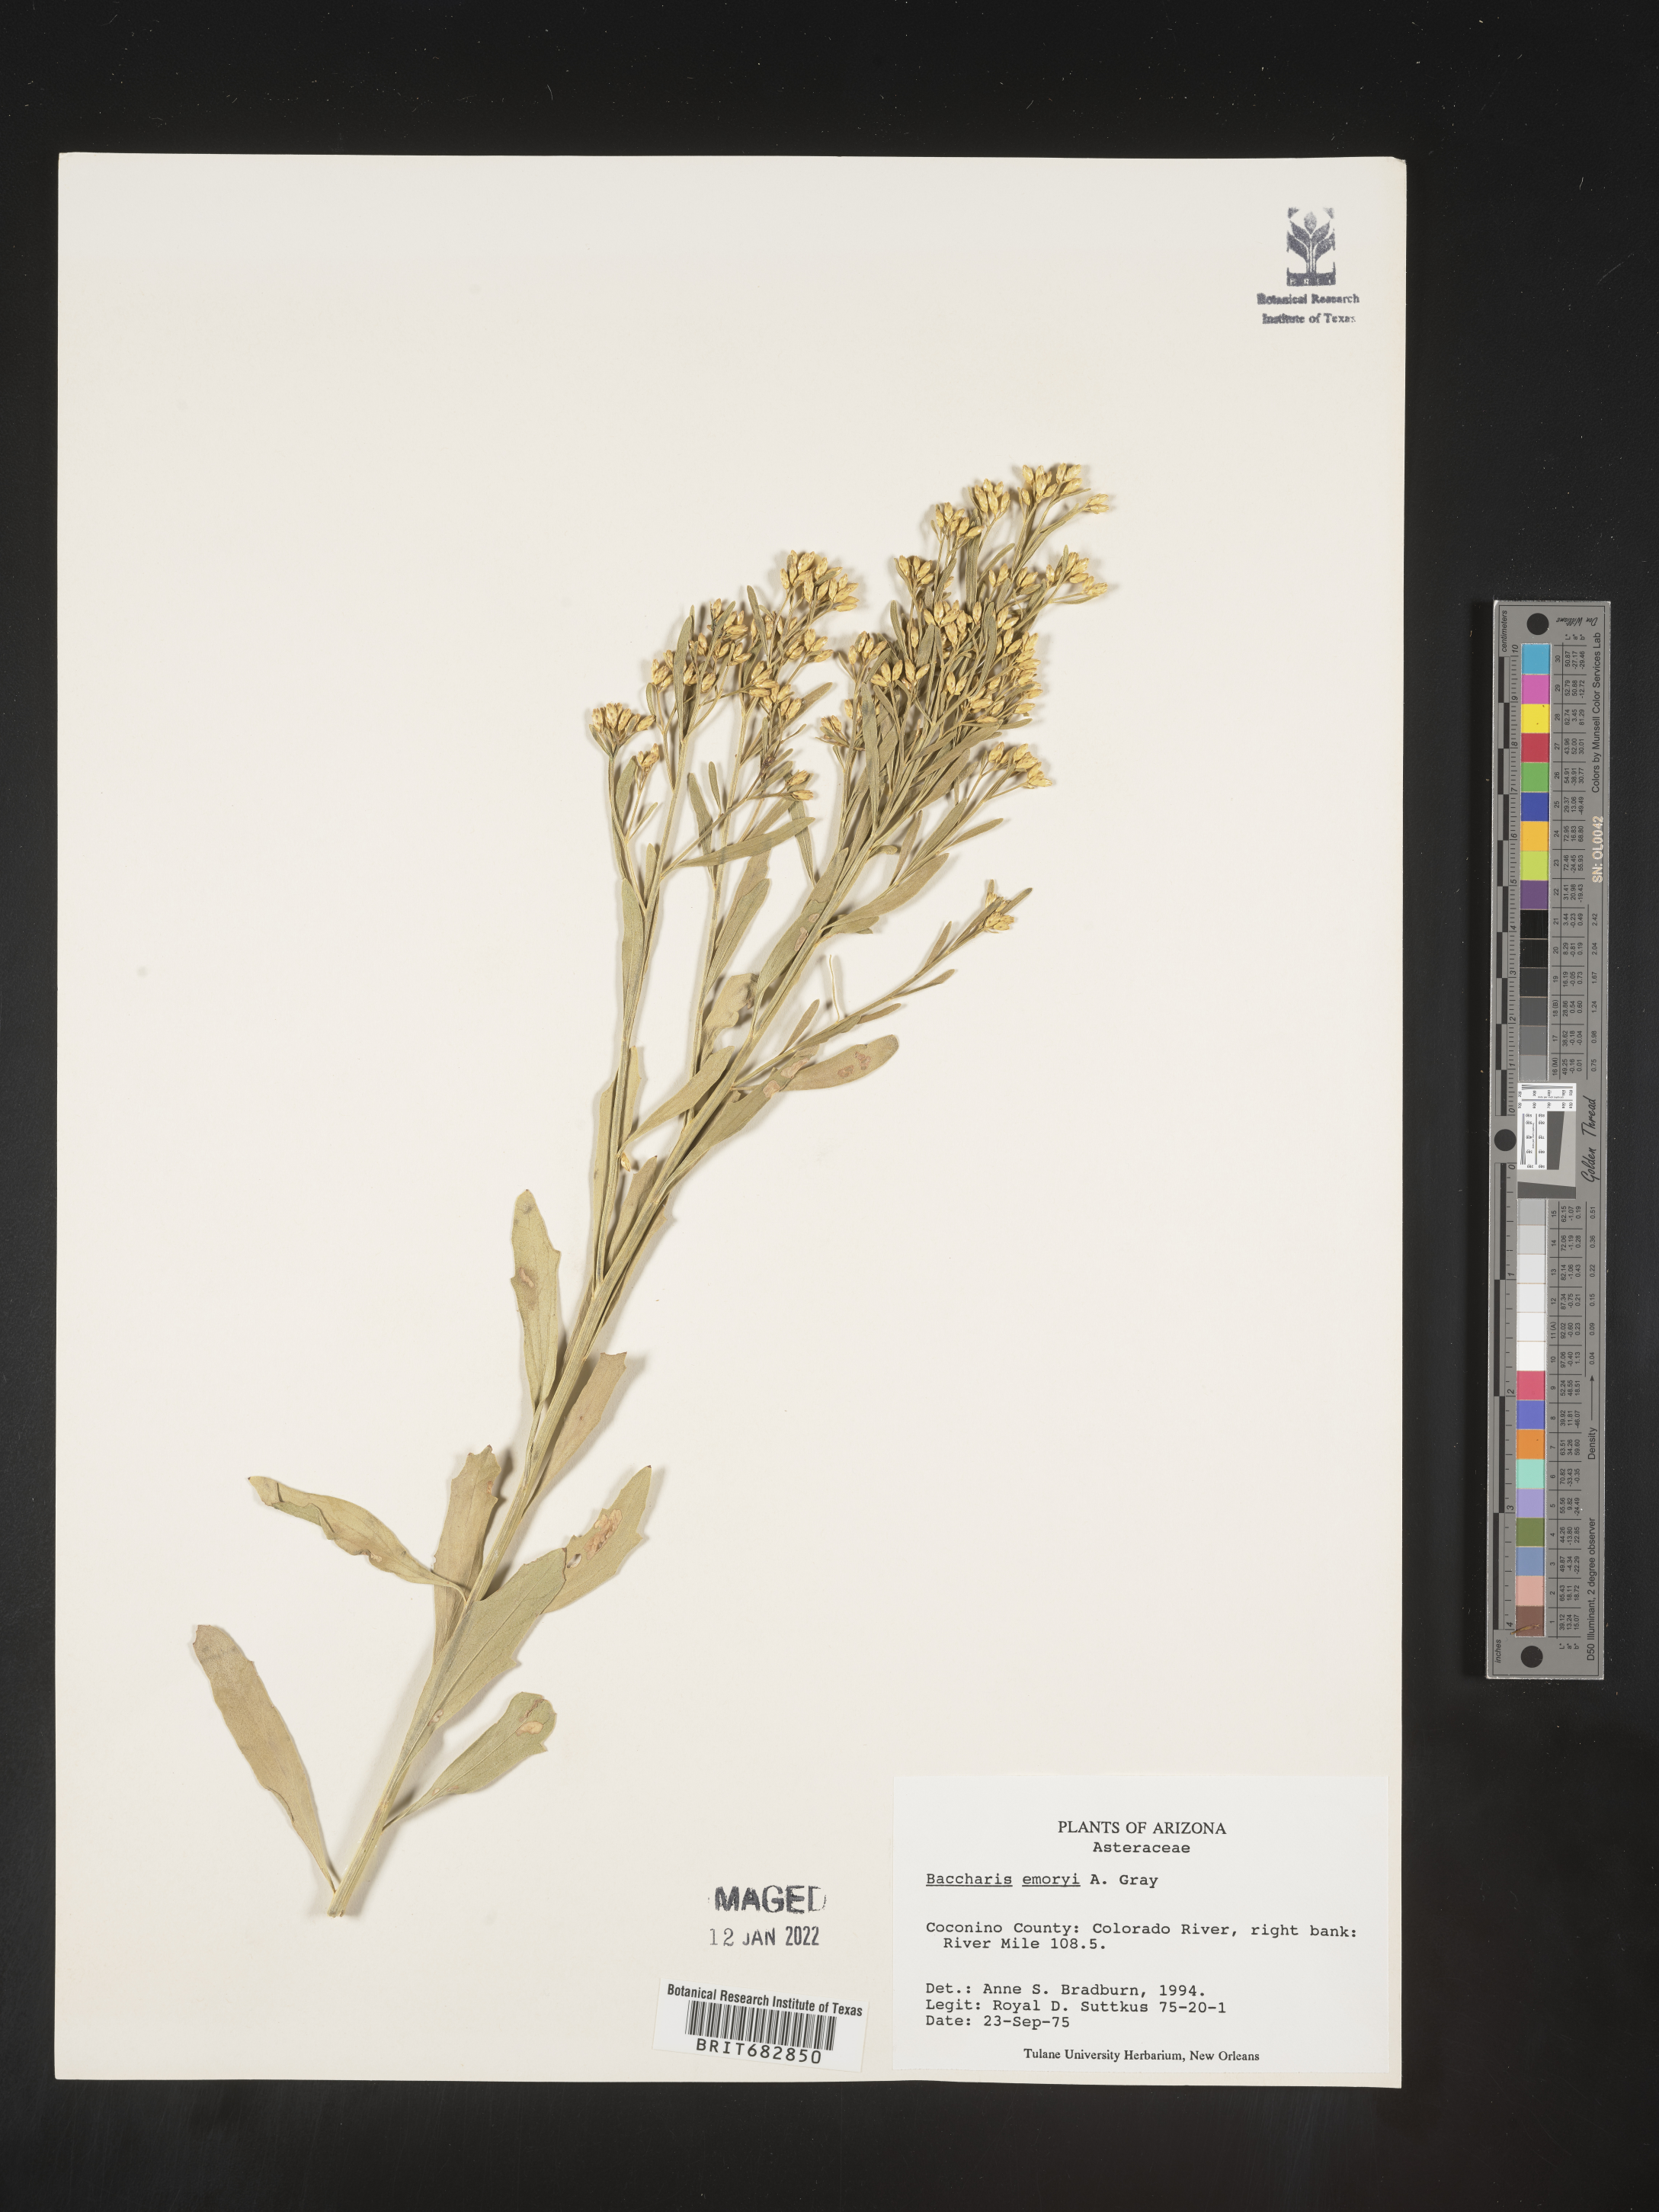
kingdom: Plantae
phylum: Tracheophyta
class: Magnoliopsida
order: Asterales
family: Asteraceae
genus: Baccharis
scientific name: Baccharis salicina
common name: Willow baccharis
